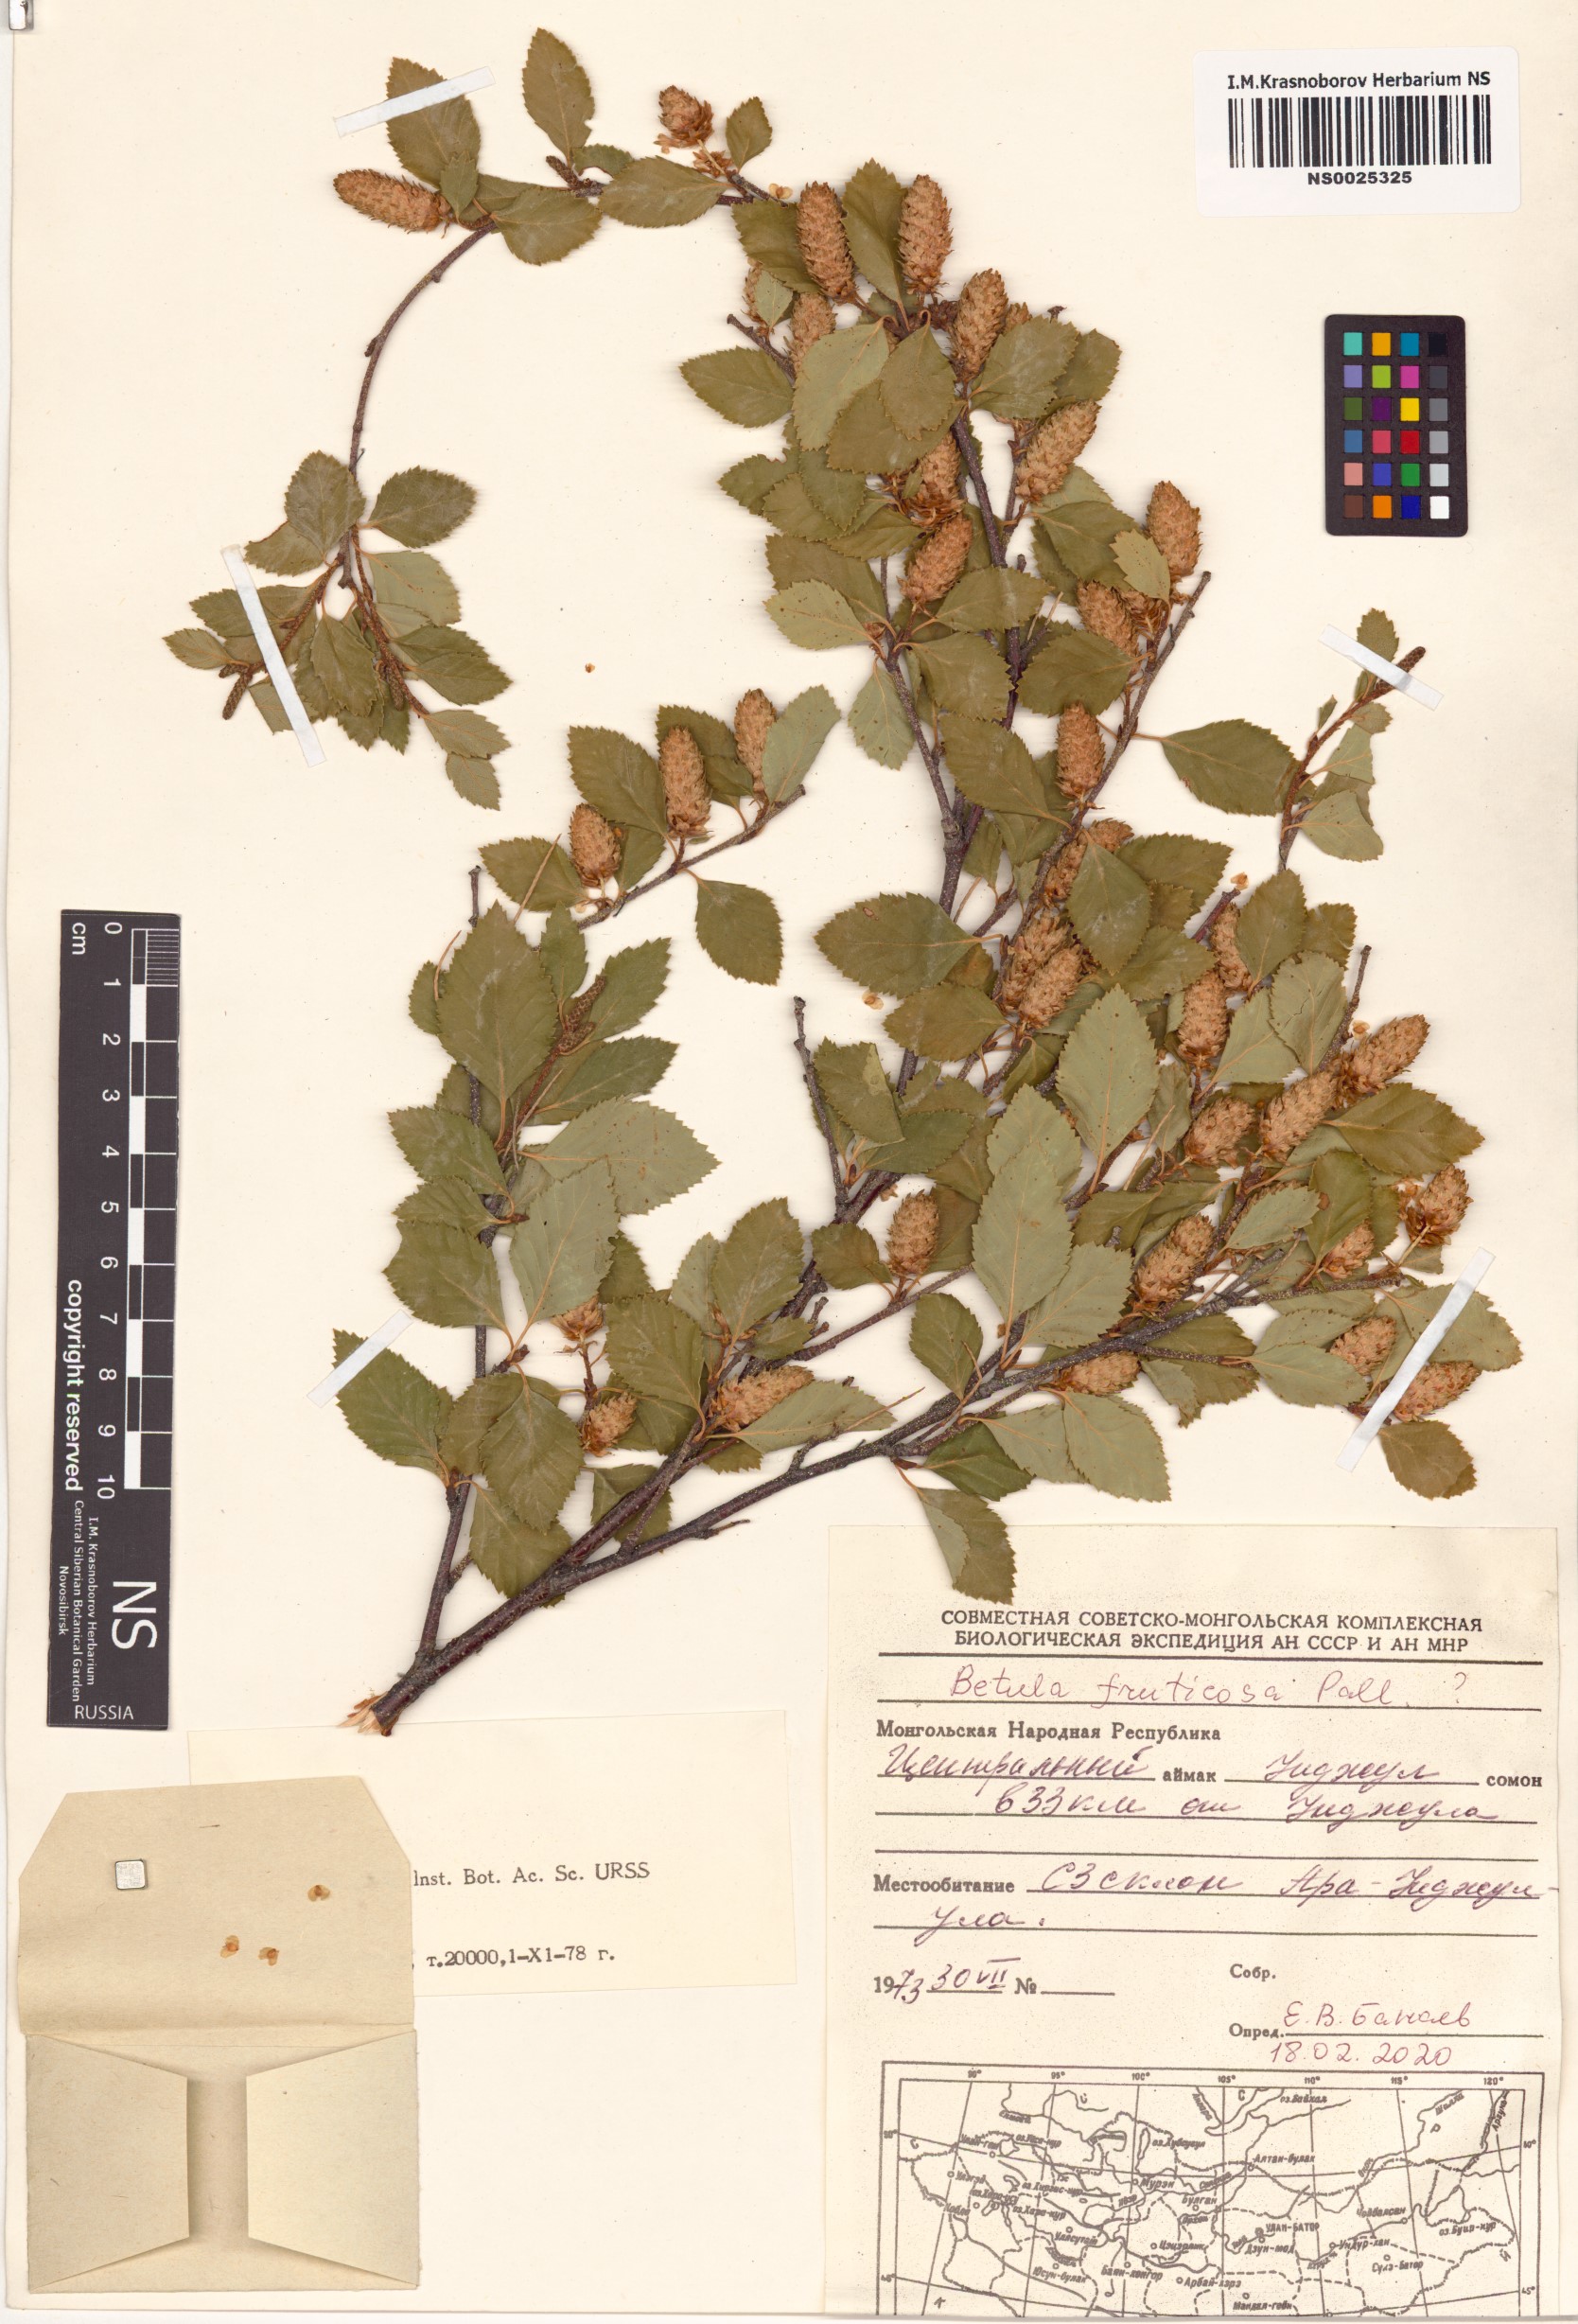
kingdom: Plantae
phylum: Tracheophyta
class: Magnoliopsida
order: Fagales
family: Betulaceae
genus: Betula
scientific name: Betula fruticosa
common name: Japanese bog birch
